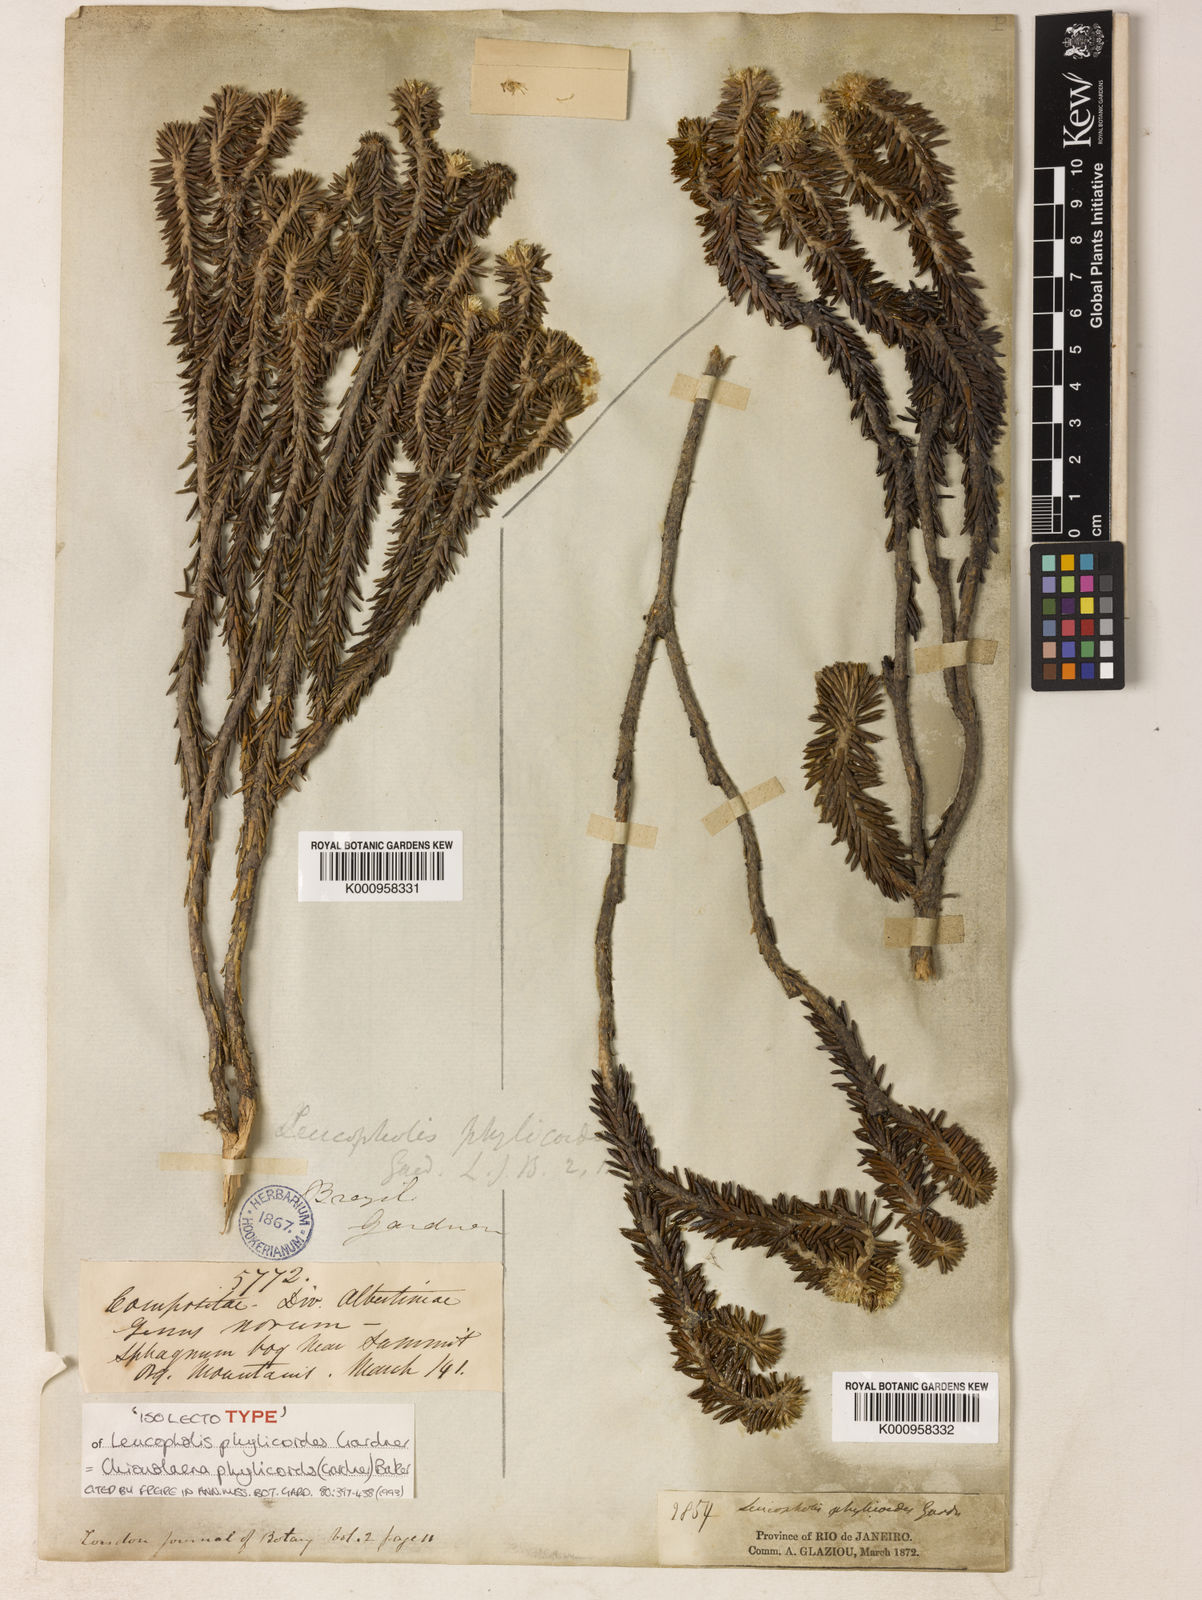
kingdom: Plantae
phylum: Tracheophyta
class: Magnoliopsida
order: Asterales
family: Asteraceae
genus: Chionolaena
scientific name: Chionolaena phylicoides
